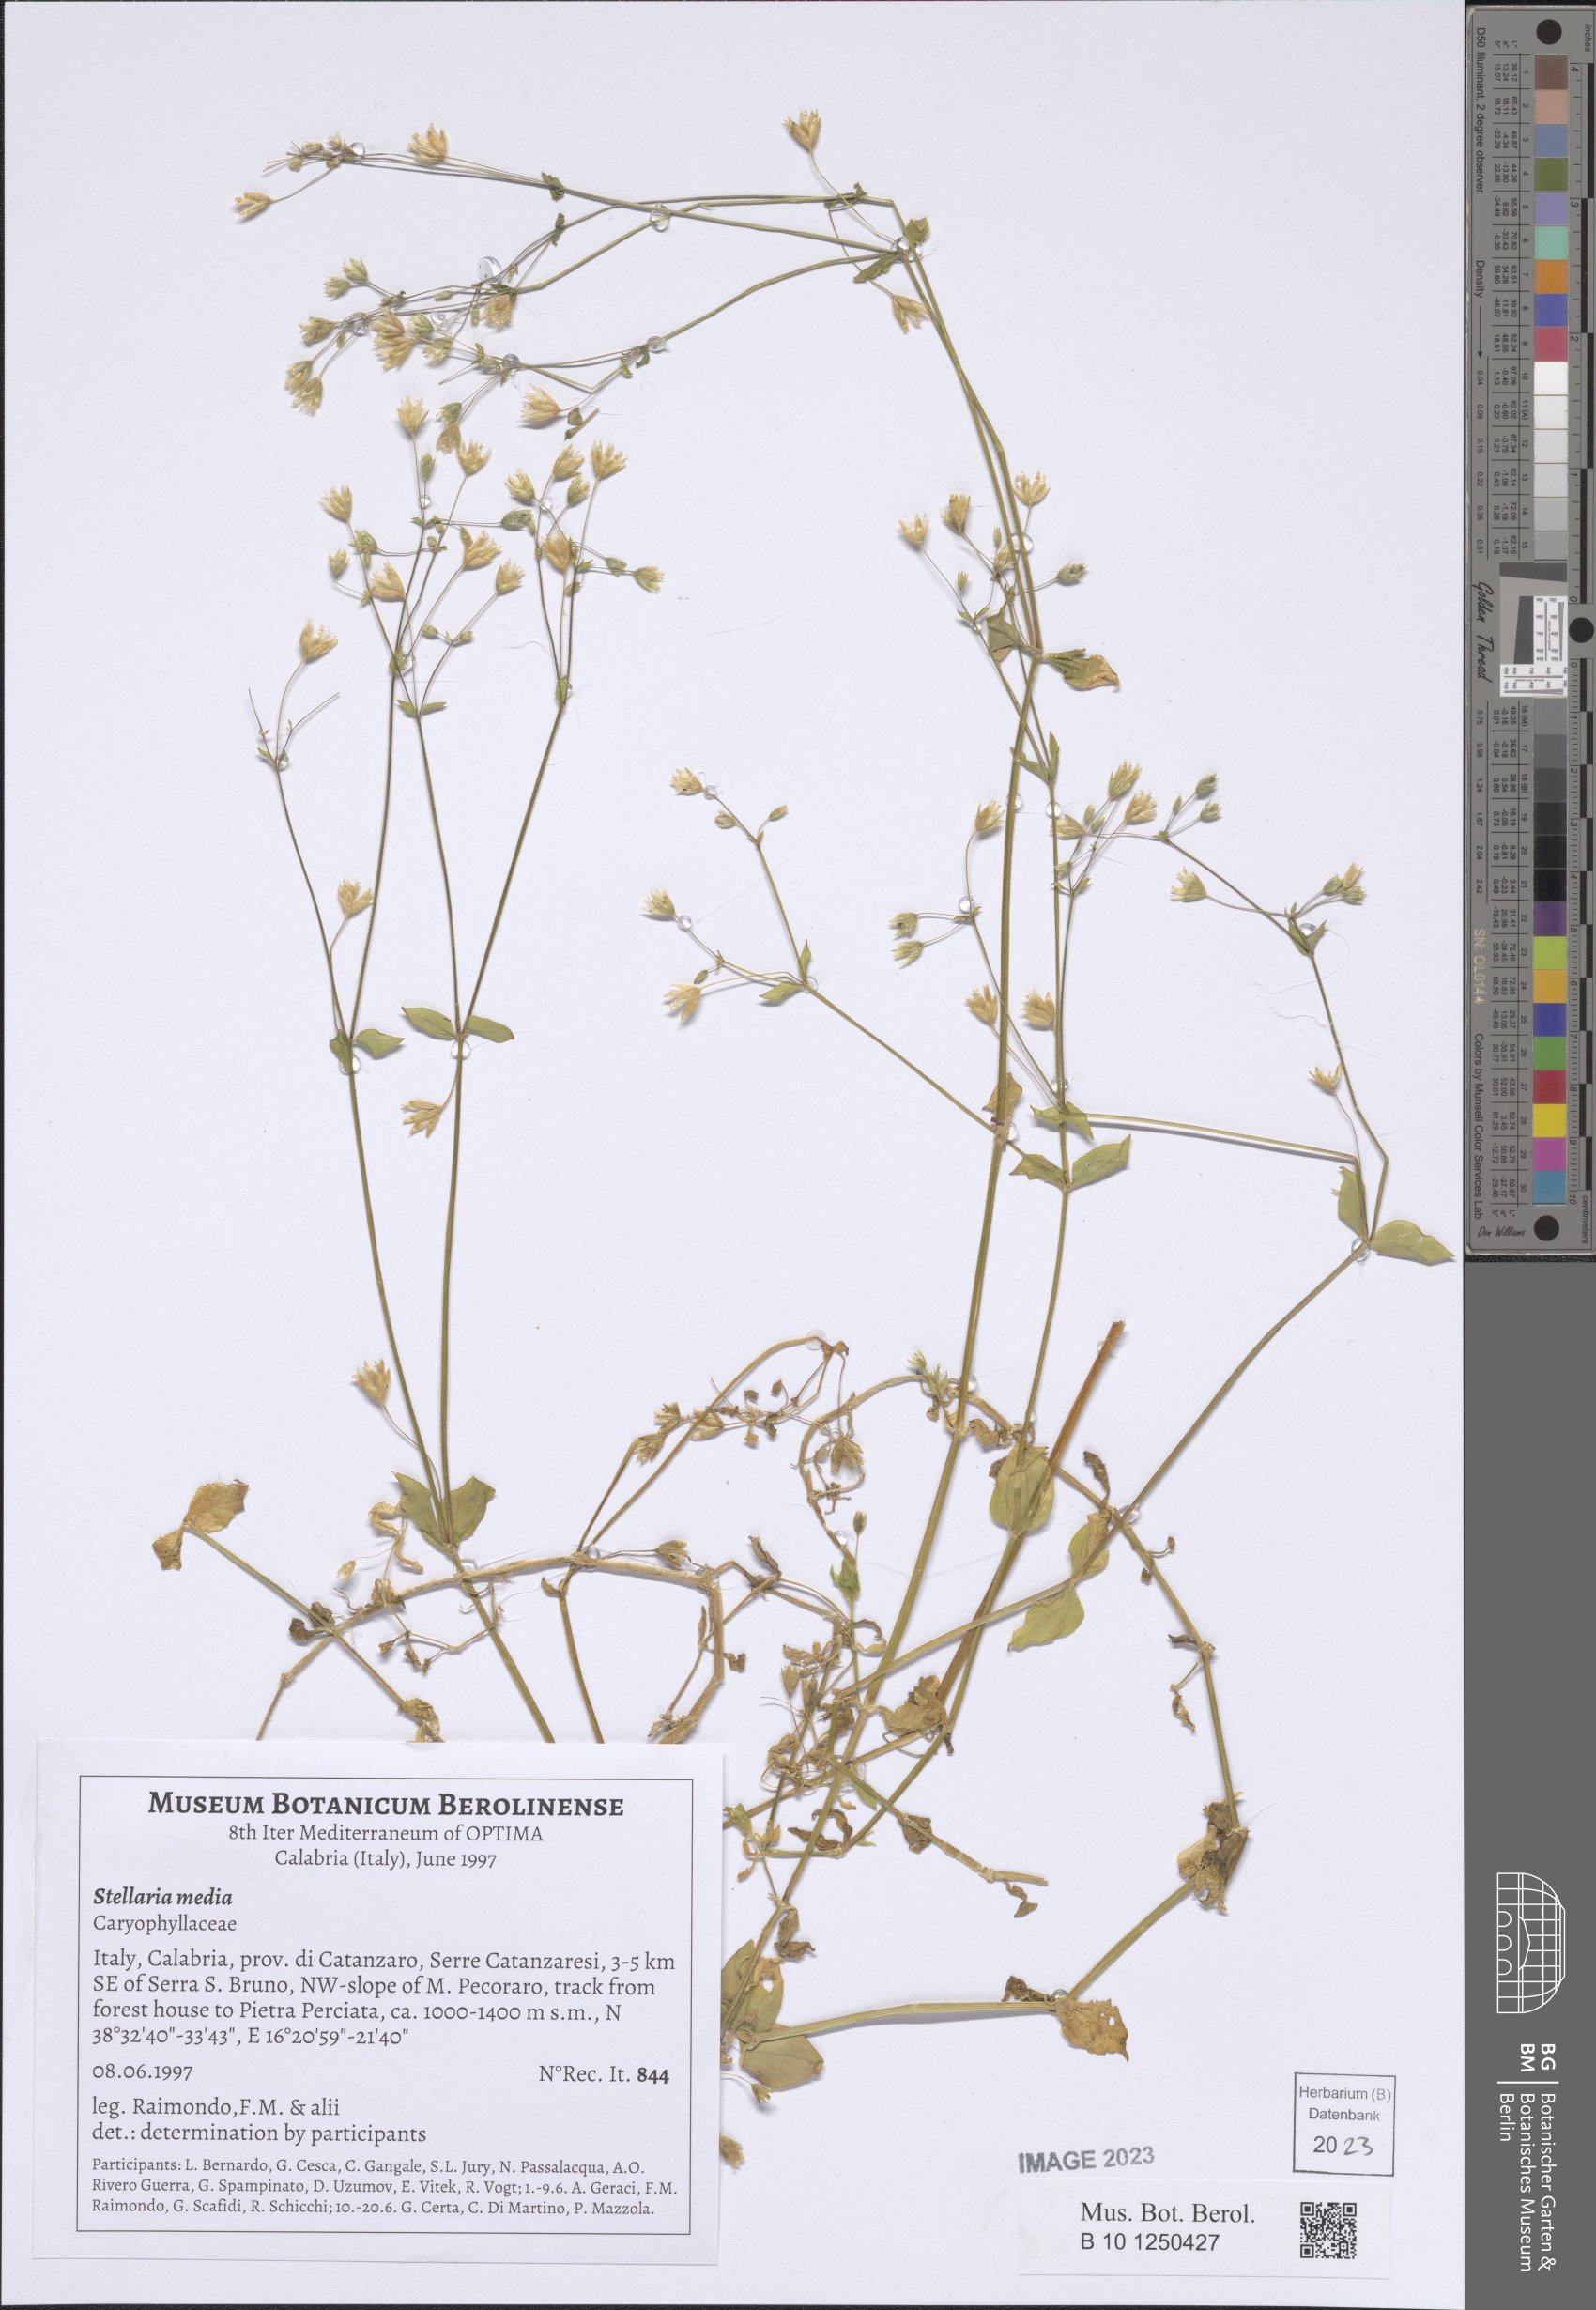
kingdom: Plantae
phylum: Tracheophyta
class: Magnoliopsida
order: Caryophyllales
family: Caryophyllaceae
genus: Stellaria
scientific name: Stellaria media
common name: Common chickweed
